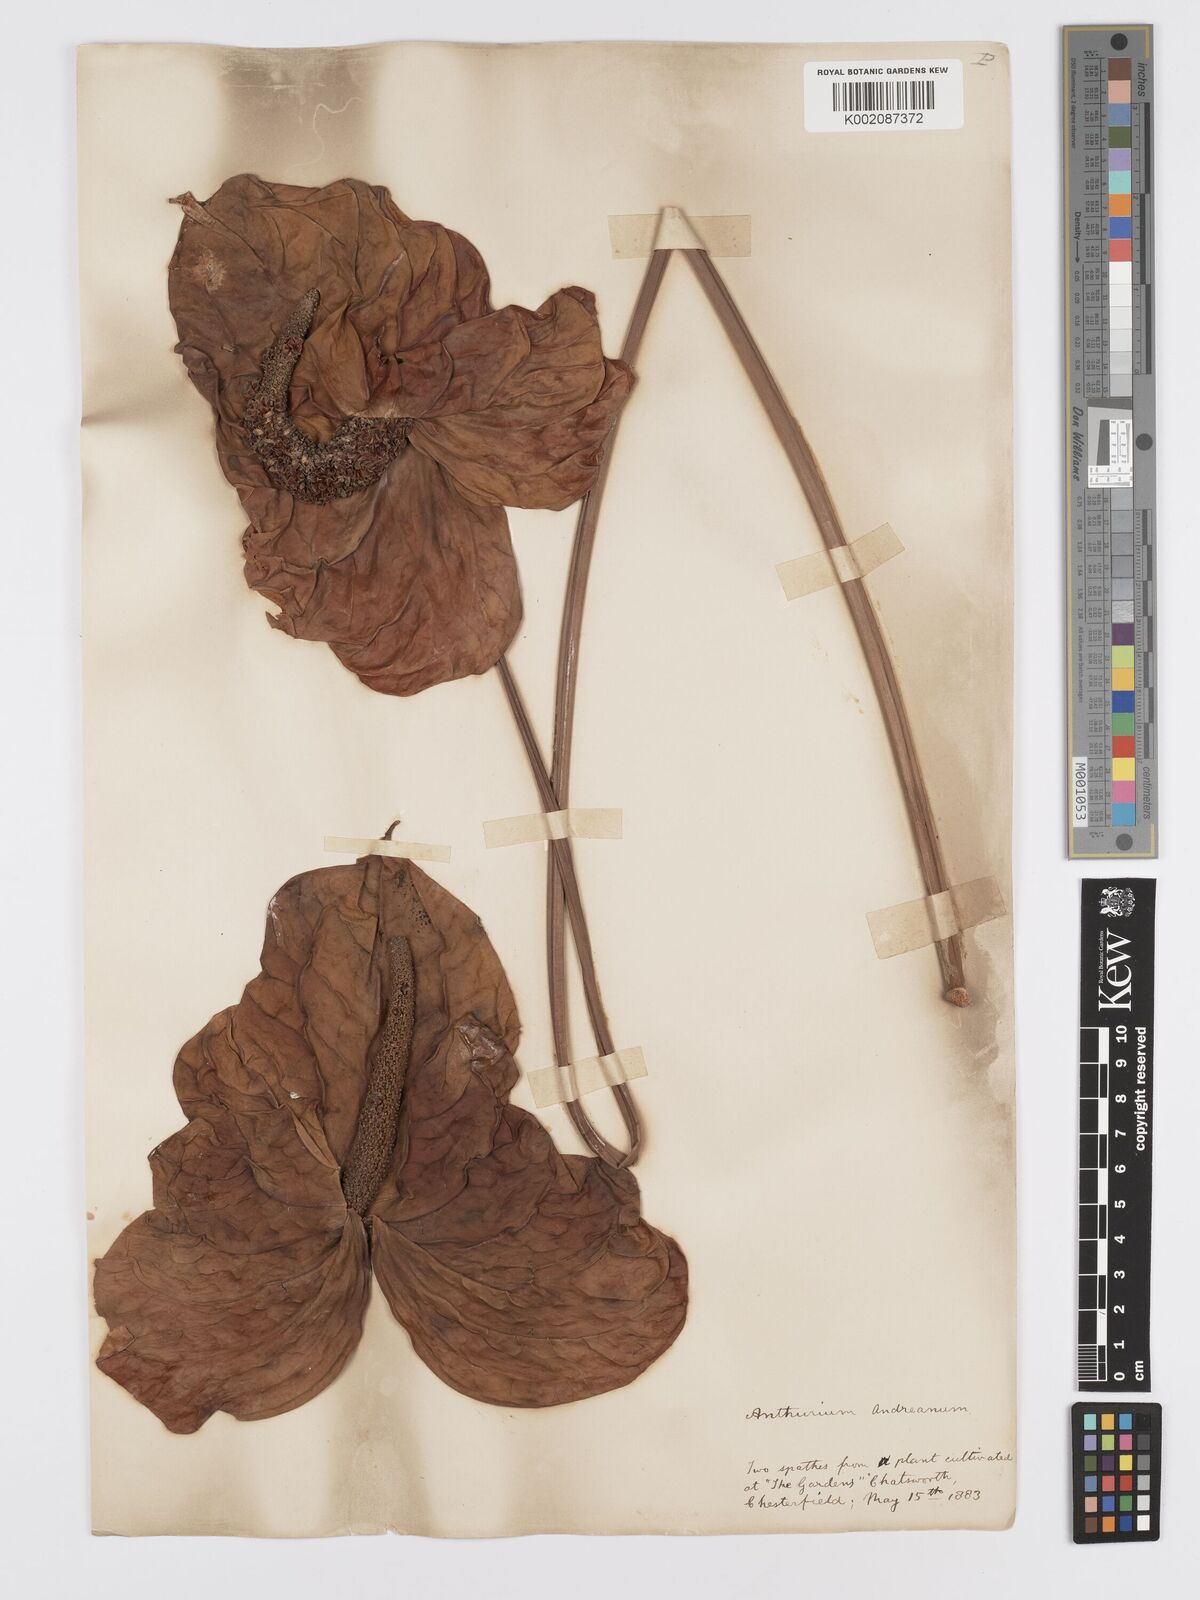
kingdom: Plantae
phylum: Tracheophyta
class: Liliopsida
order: Alismatales
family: Araceae
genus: Anthurium
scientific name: Anthurium andraeanum
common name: Flamingo-flower
